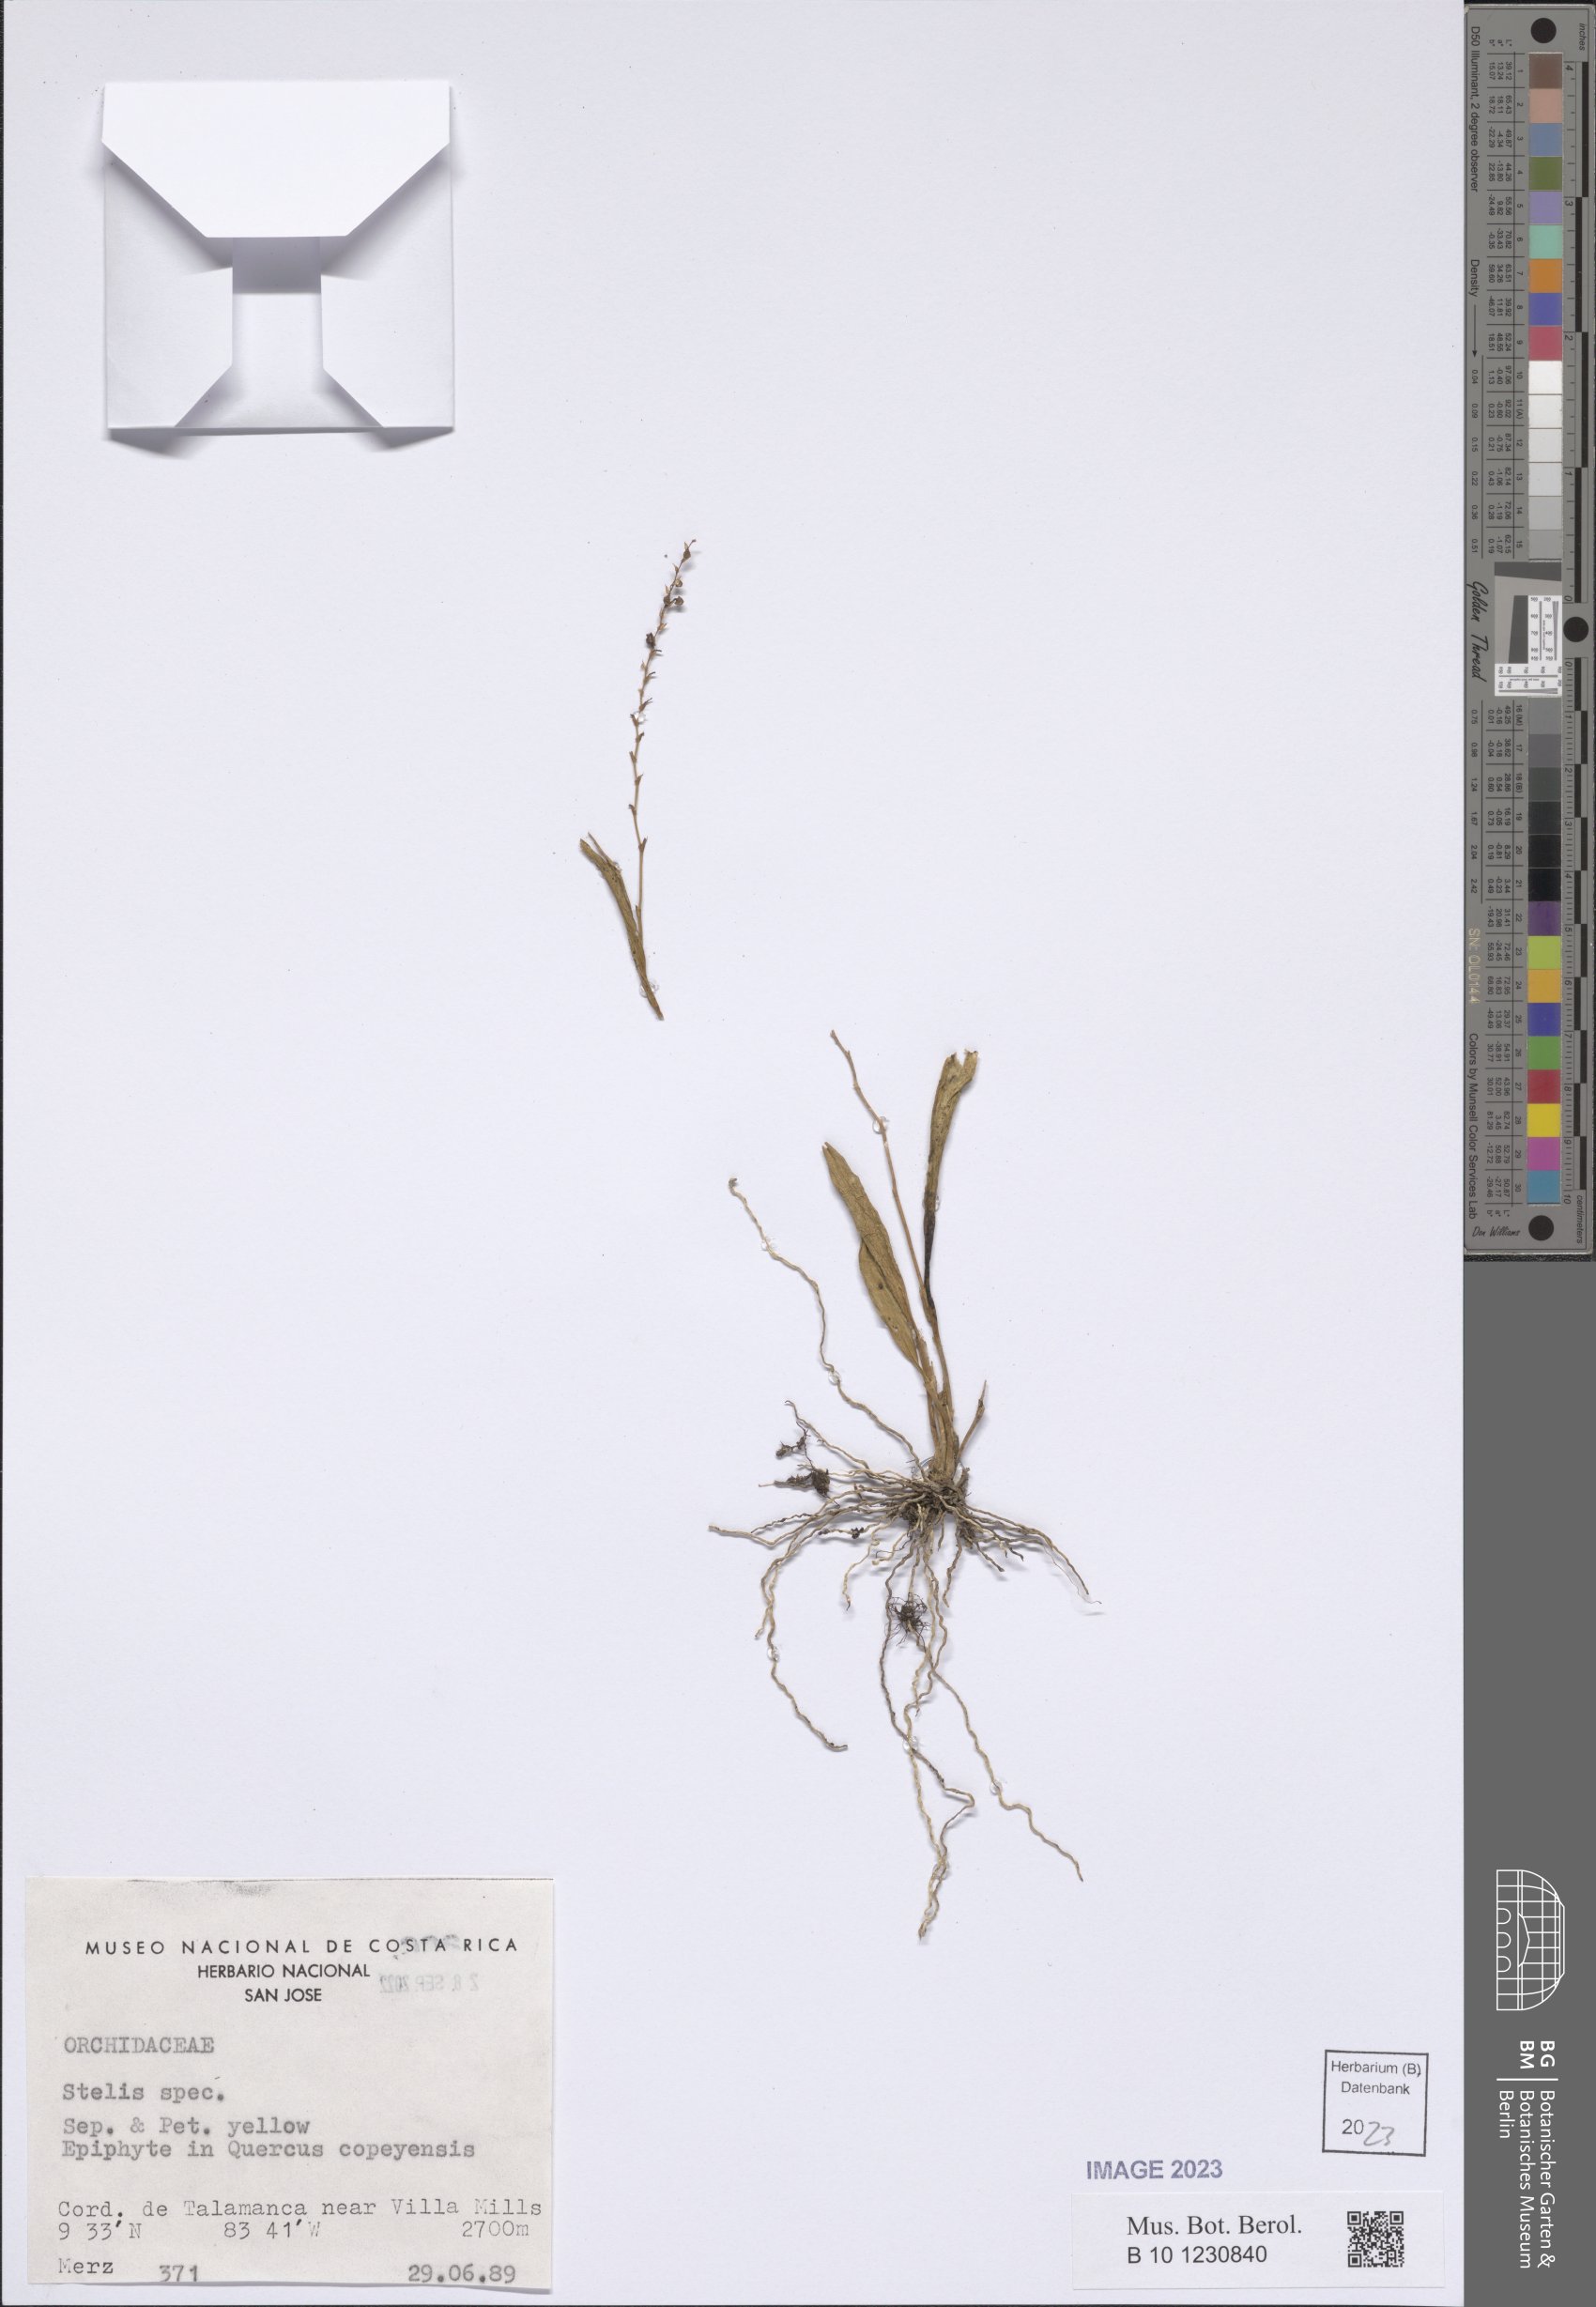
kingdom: Plantae
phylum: Tracheophyta
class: Liliopsida
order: Asparagales
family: Orchidaceae
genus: Stelis
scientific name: Stelis
